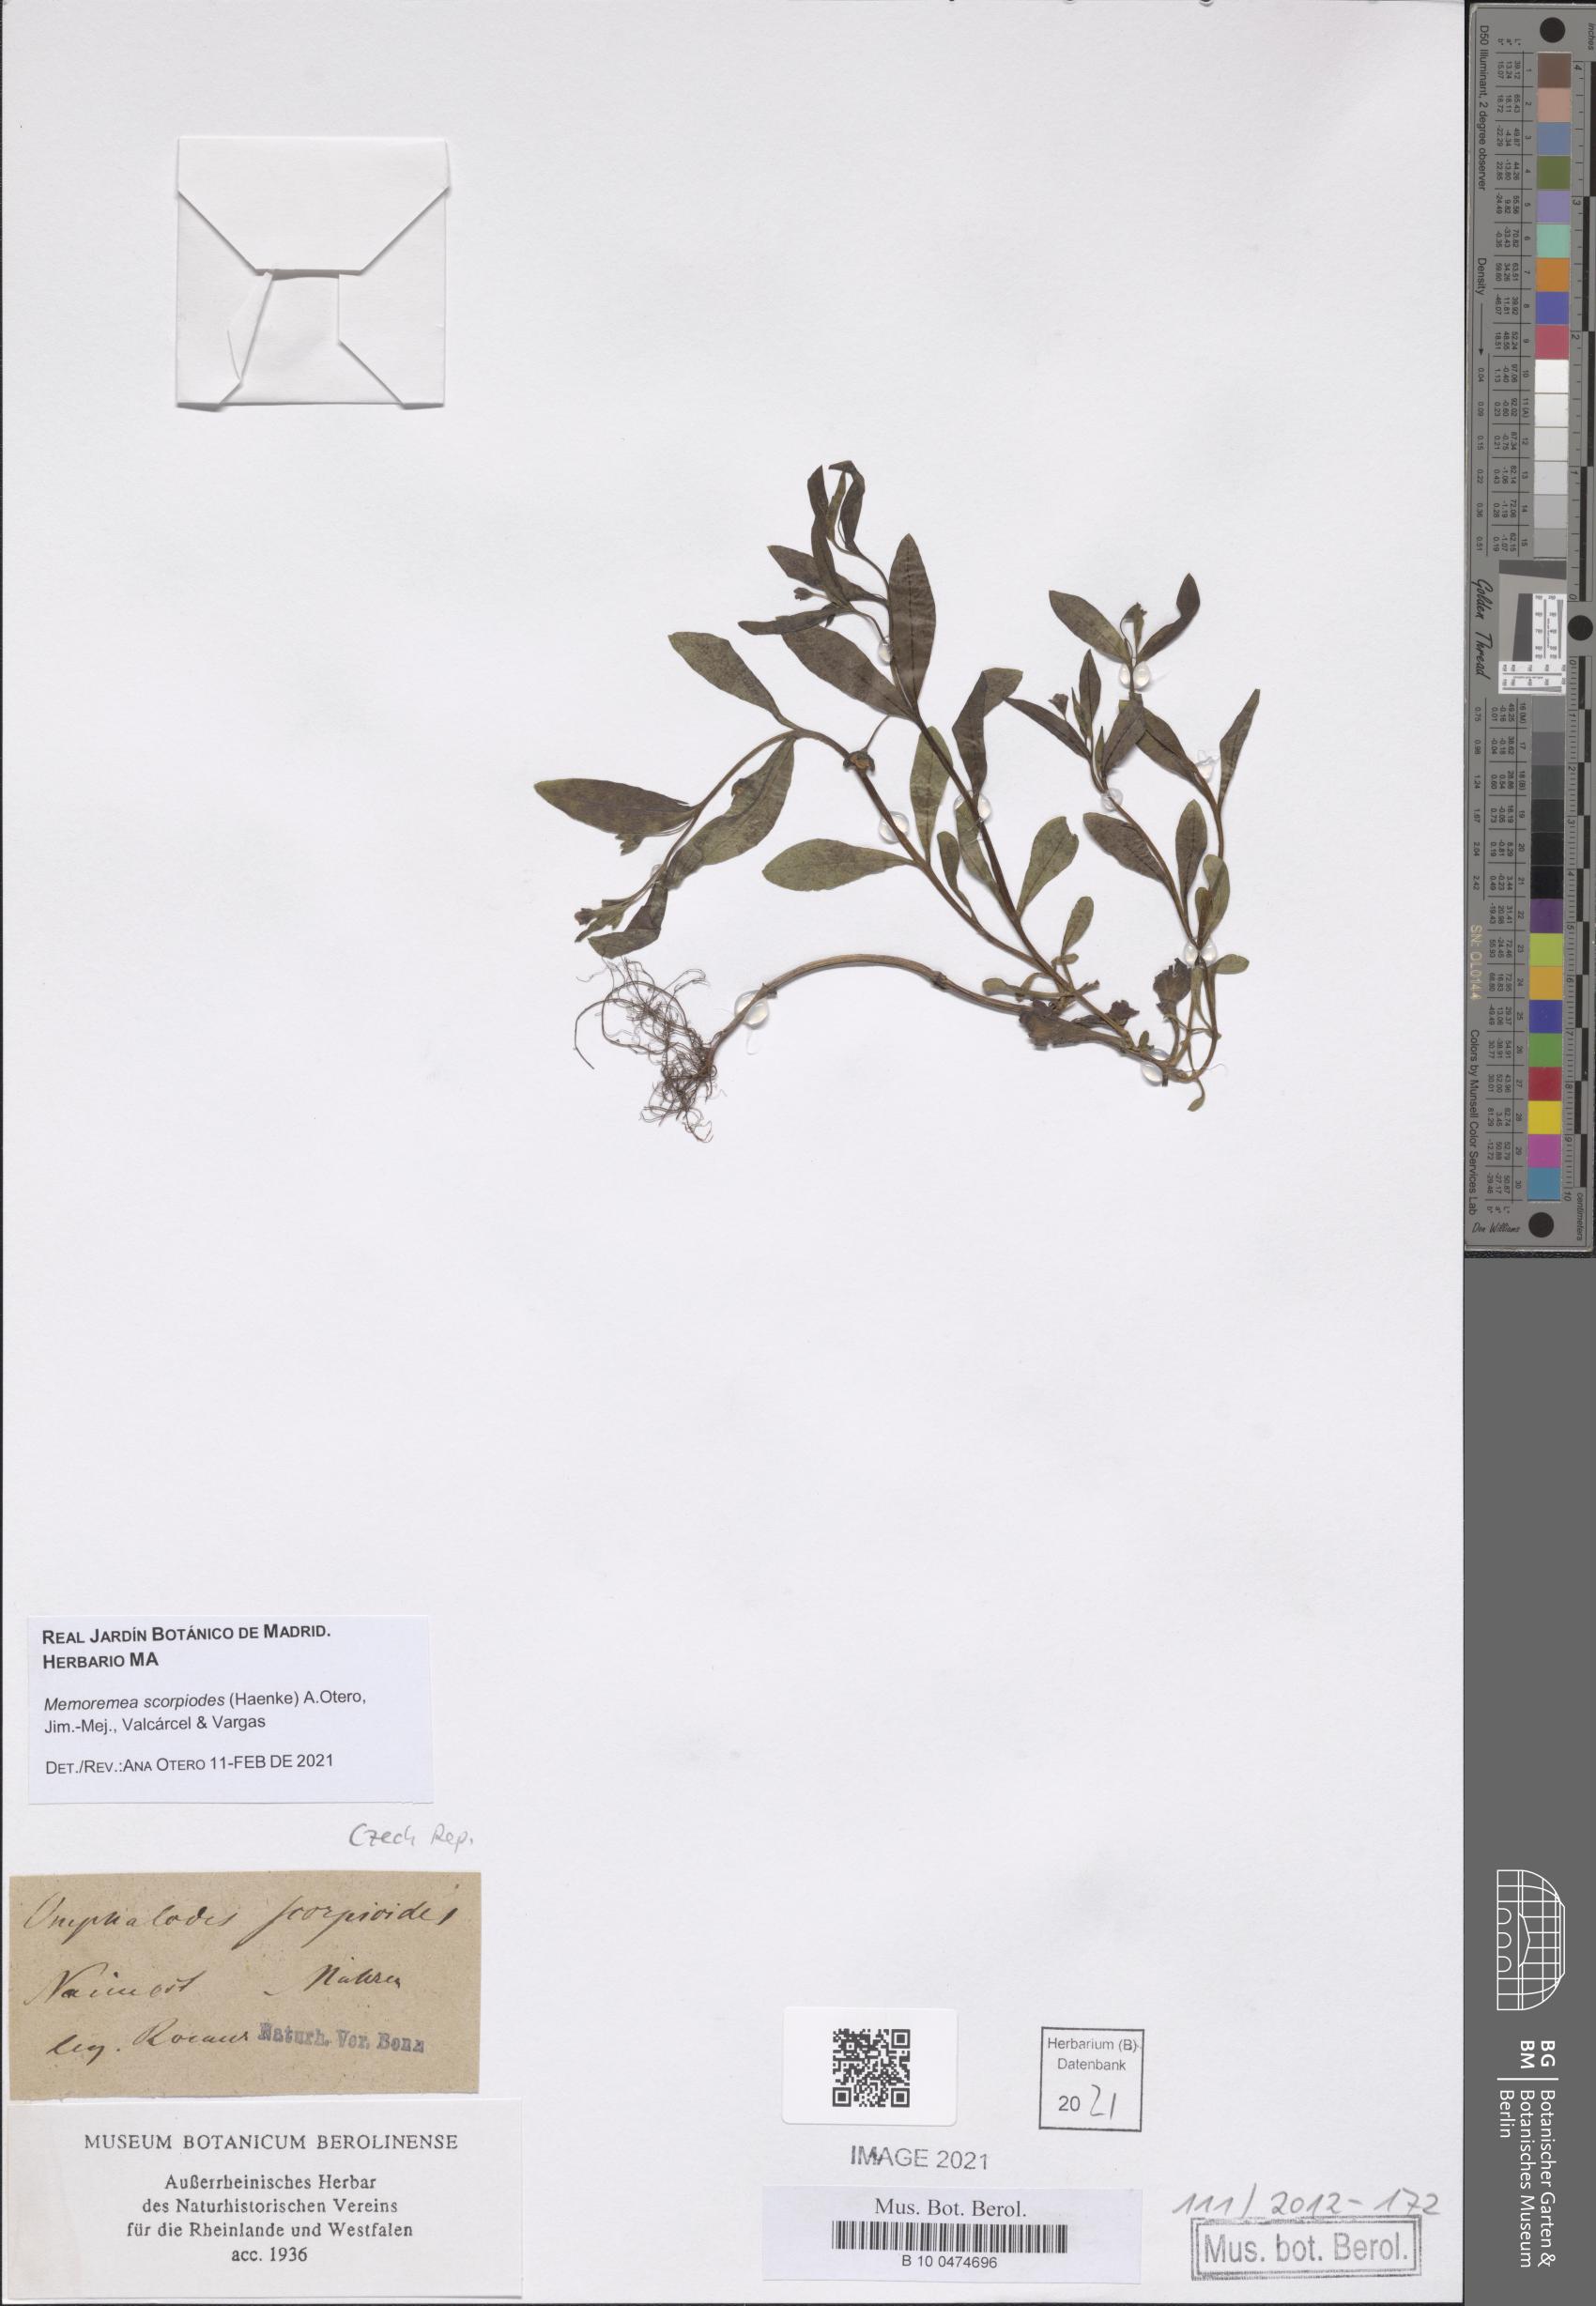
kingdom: Plantae
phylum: Tracheophyta
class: Magnoliopsida
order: Boraginales
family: Boraginaceae
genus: Memoremea
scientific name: Memoremea scorpioides
